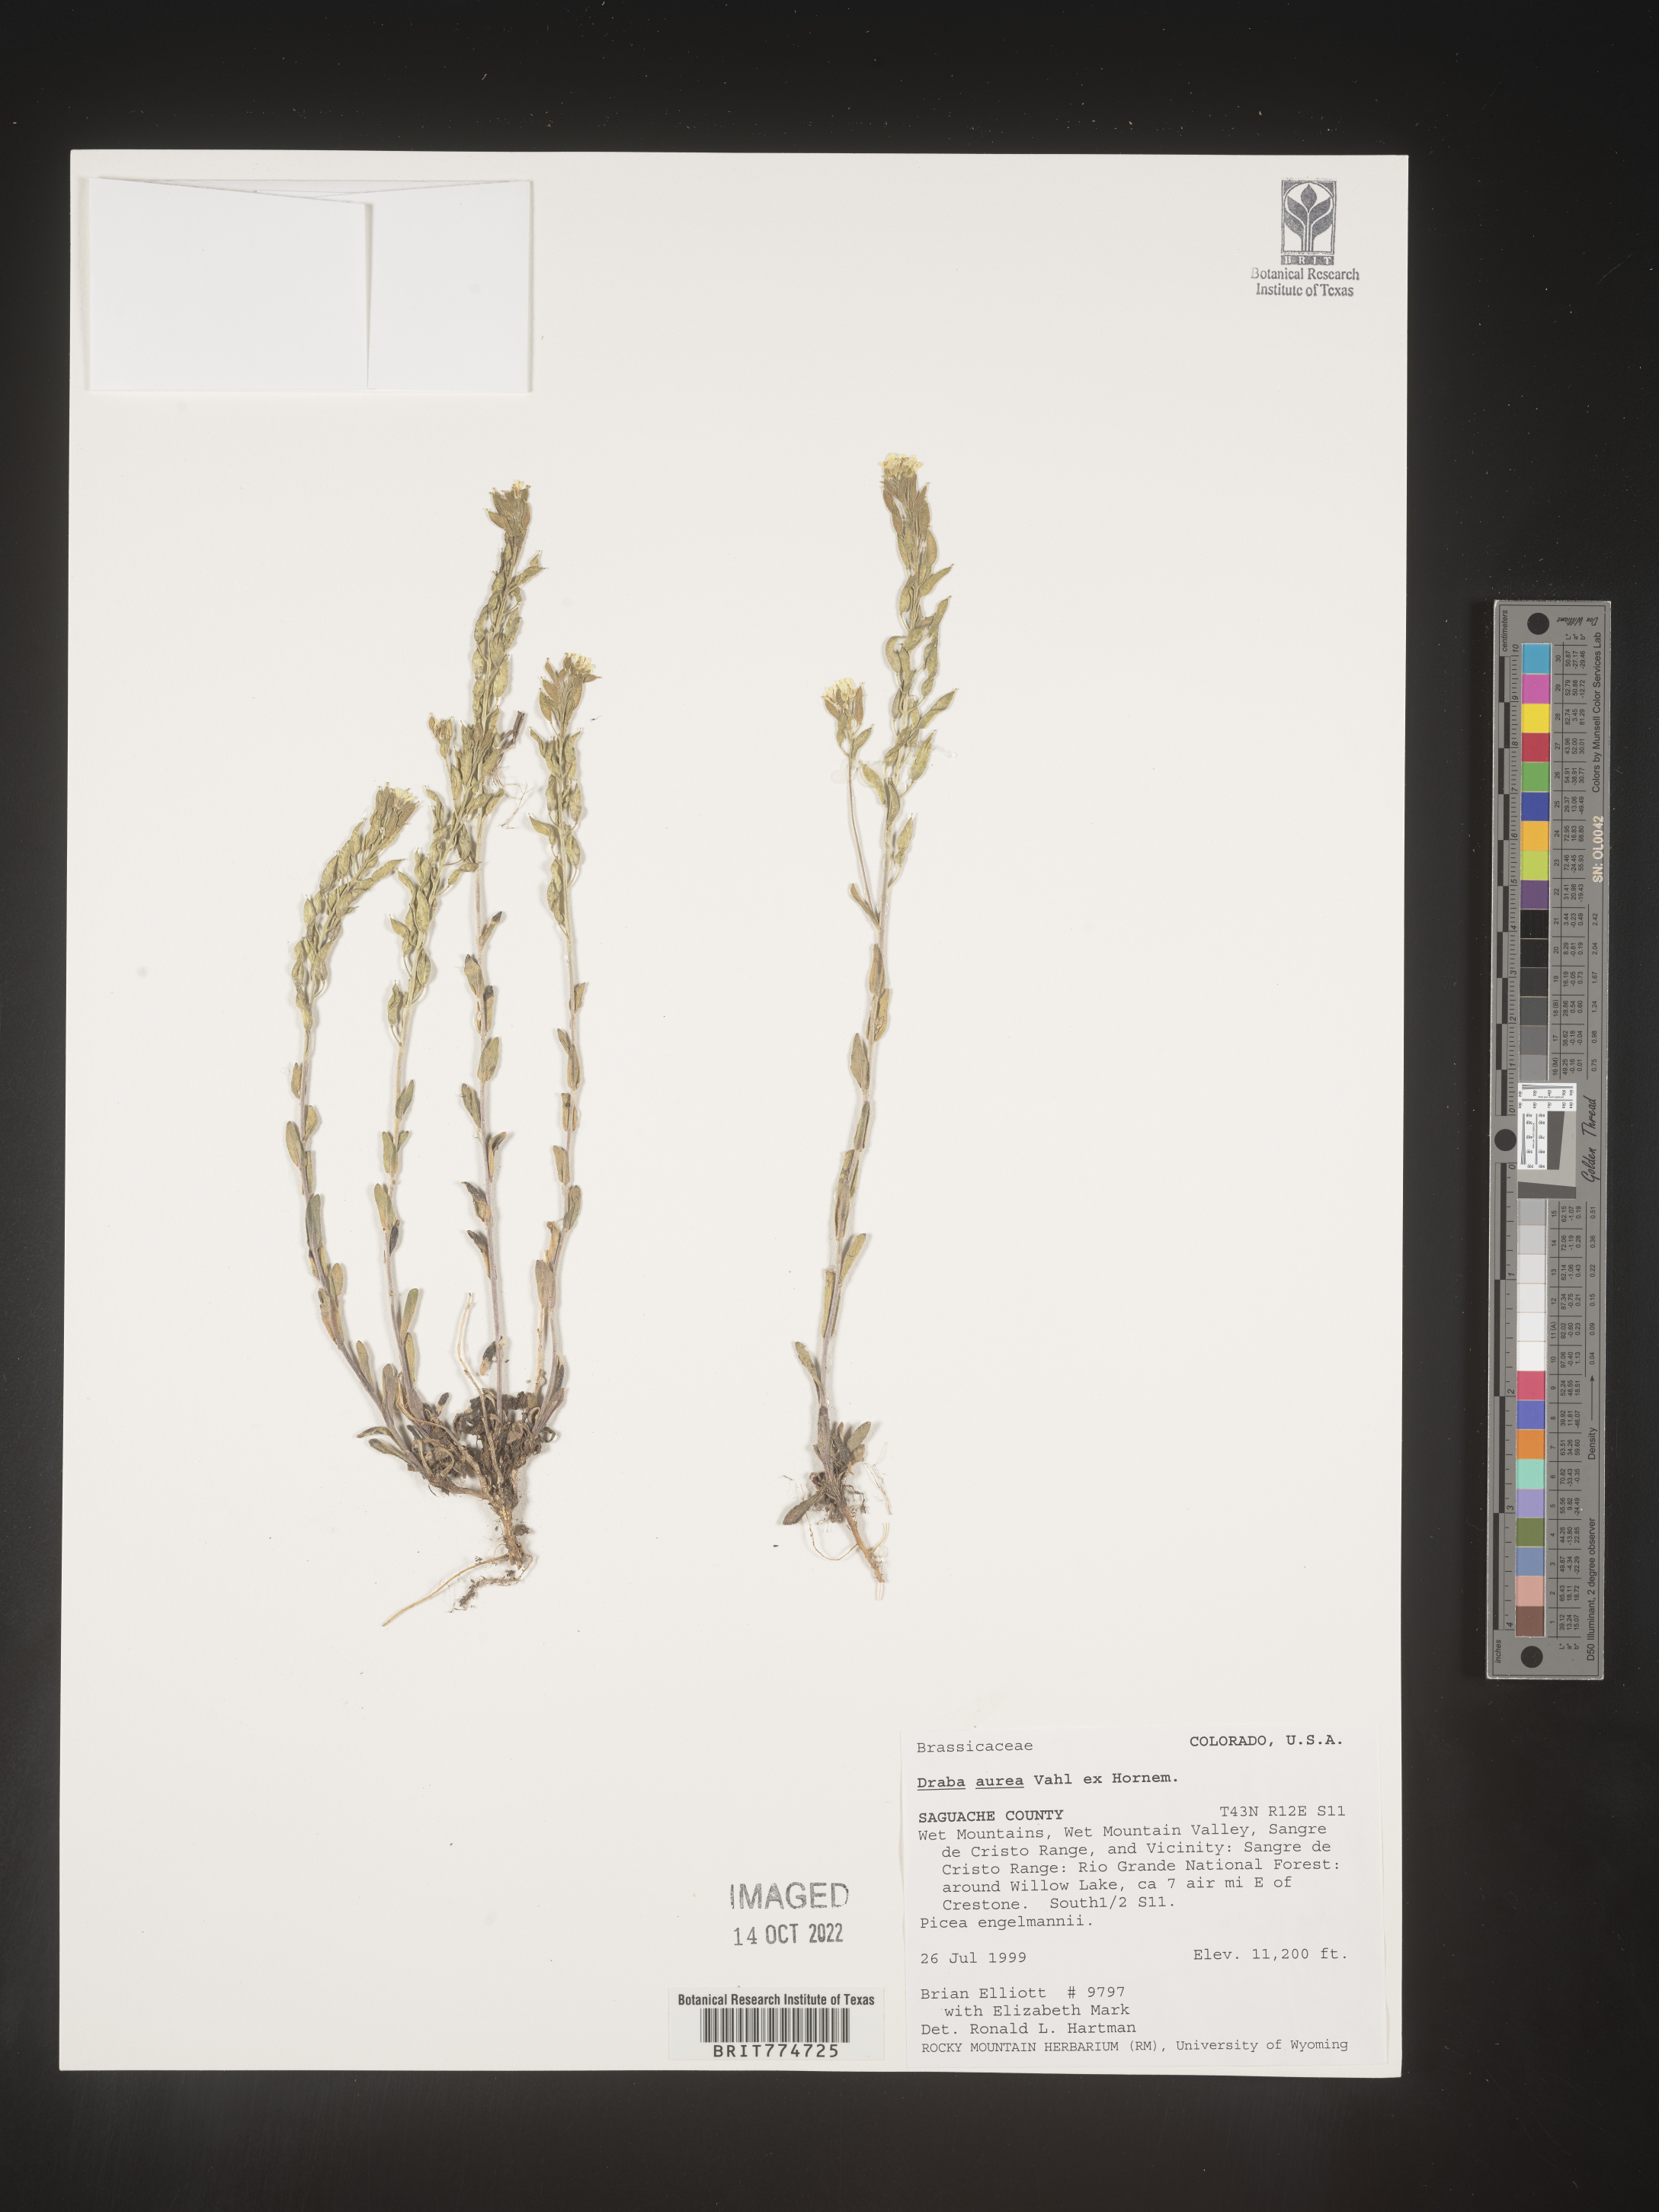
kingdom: Plantae
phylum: Tracheophyta
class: Magnoliopsida
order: Brassicales
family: Brassicaceae
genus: Draba
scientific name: Draba
